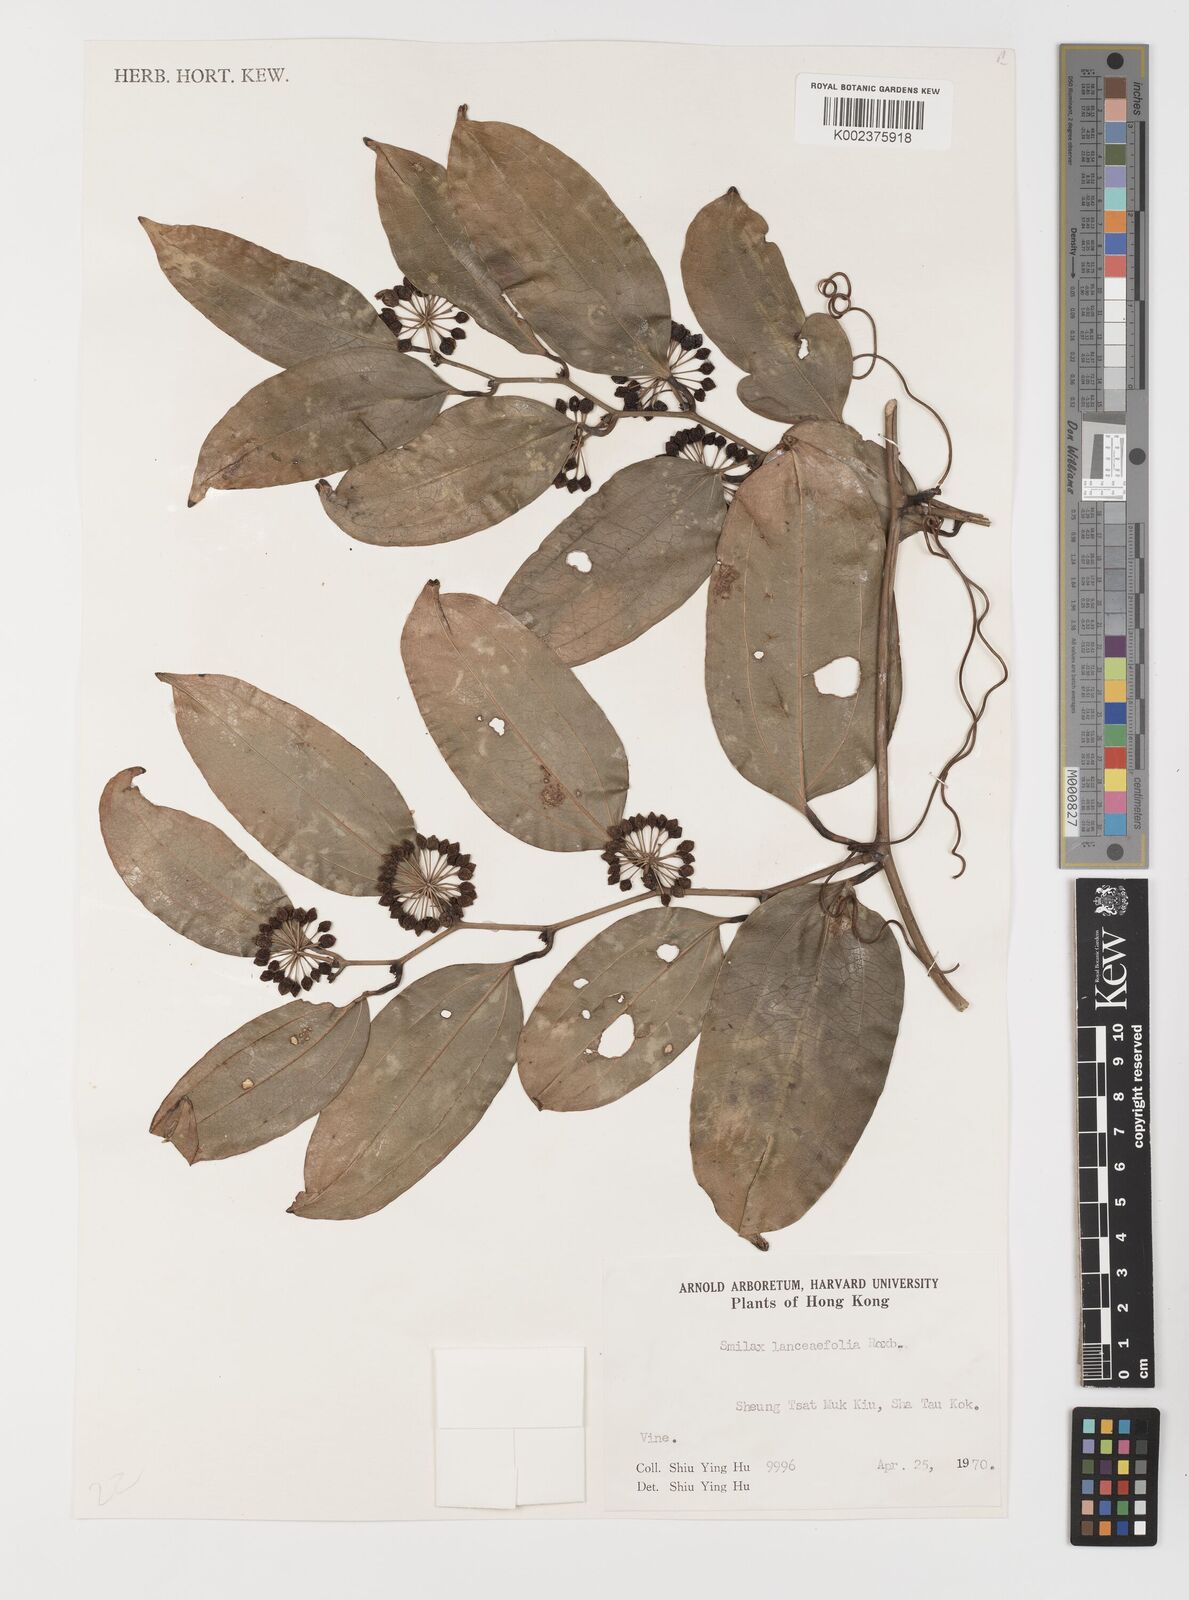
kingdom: Plantae
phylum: Tracheophyta
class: Liliopsida
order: Liliales
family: Smilacaceae
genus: Smilax
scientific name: Smilax lanceifolia
